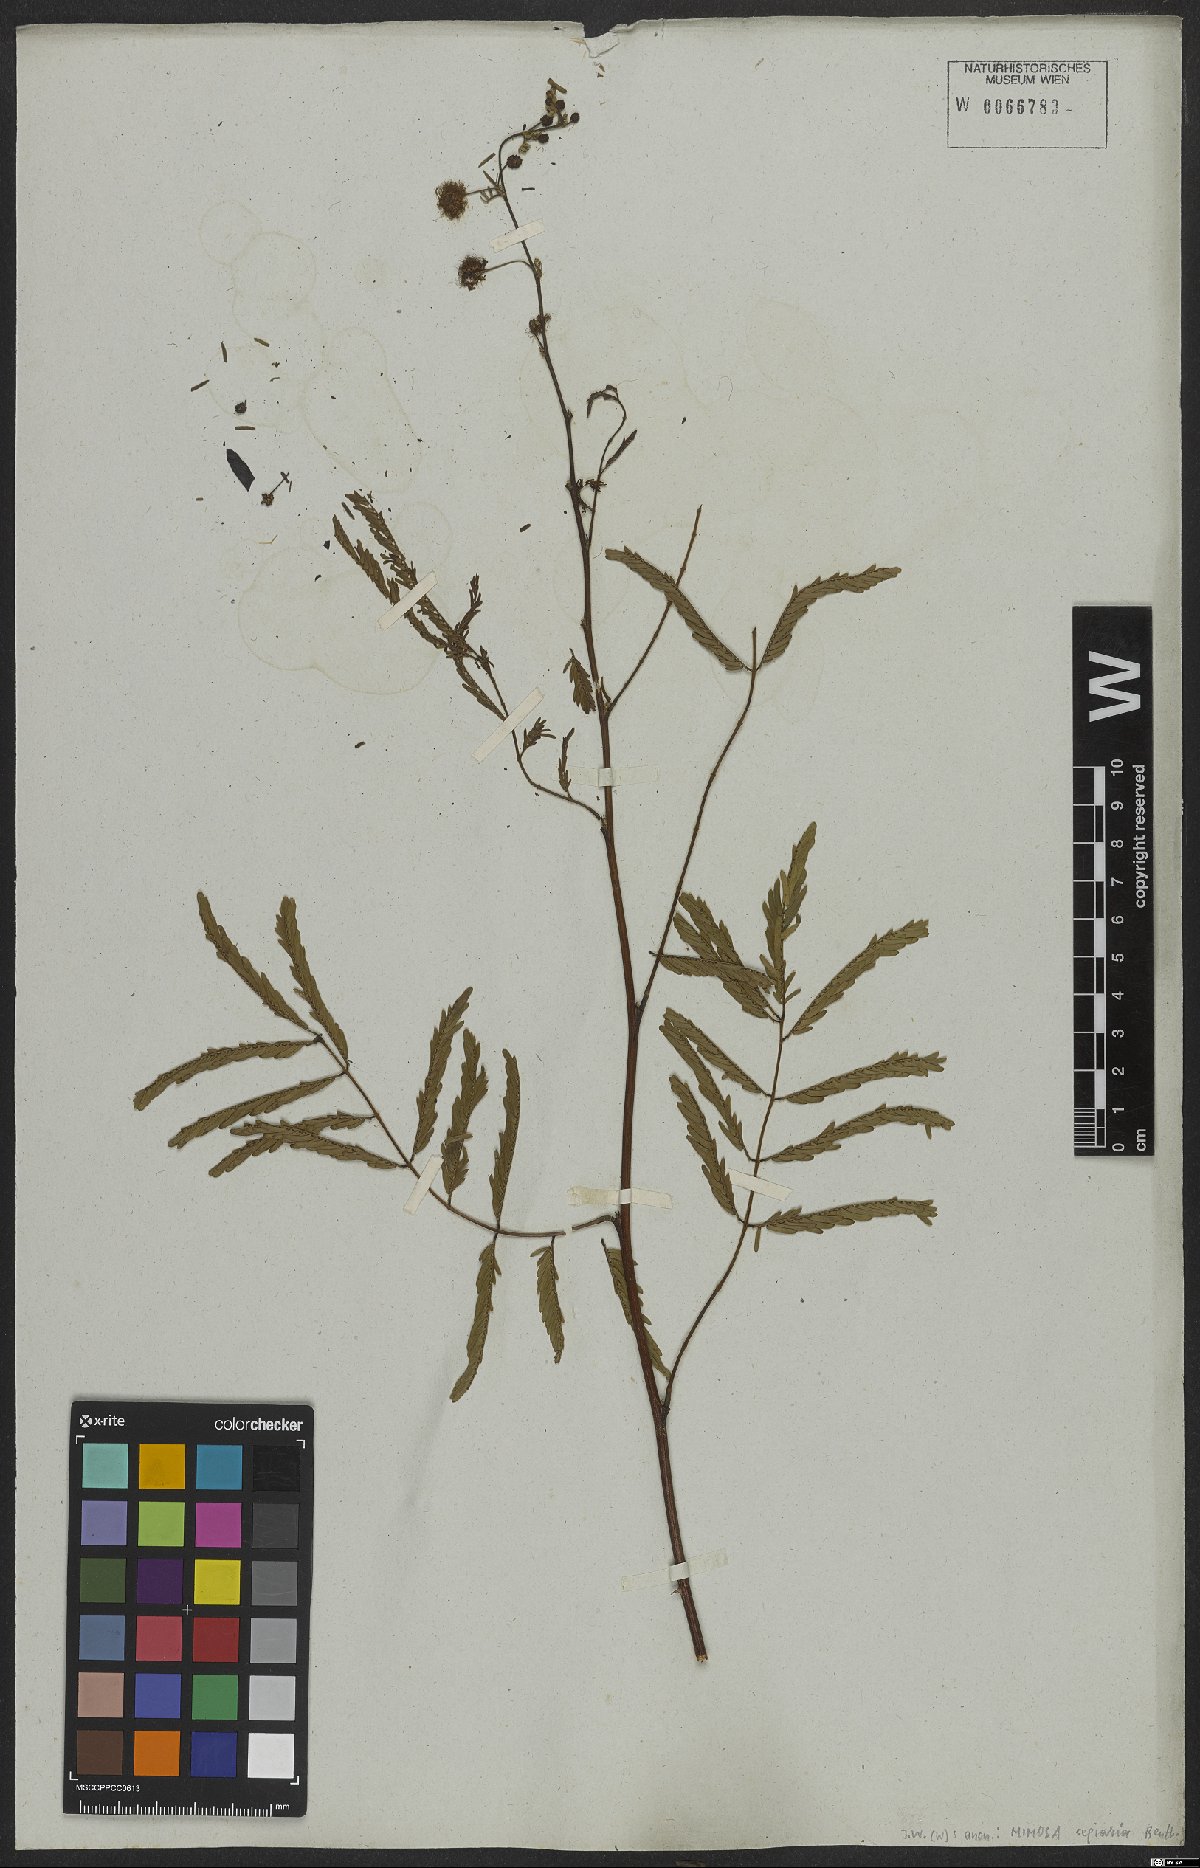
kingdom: Plantae
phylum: Tracheophyta
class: Magnoliopsida
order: Fabales
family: Fabaceae
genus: Mimosa
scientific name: Mimosa bimucronata
